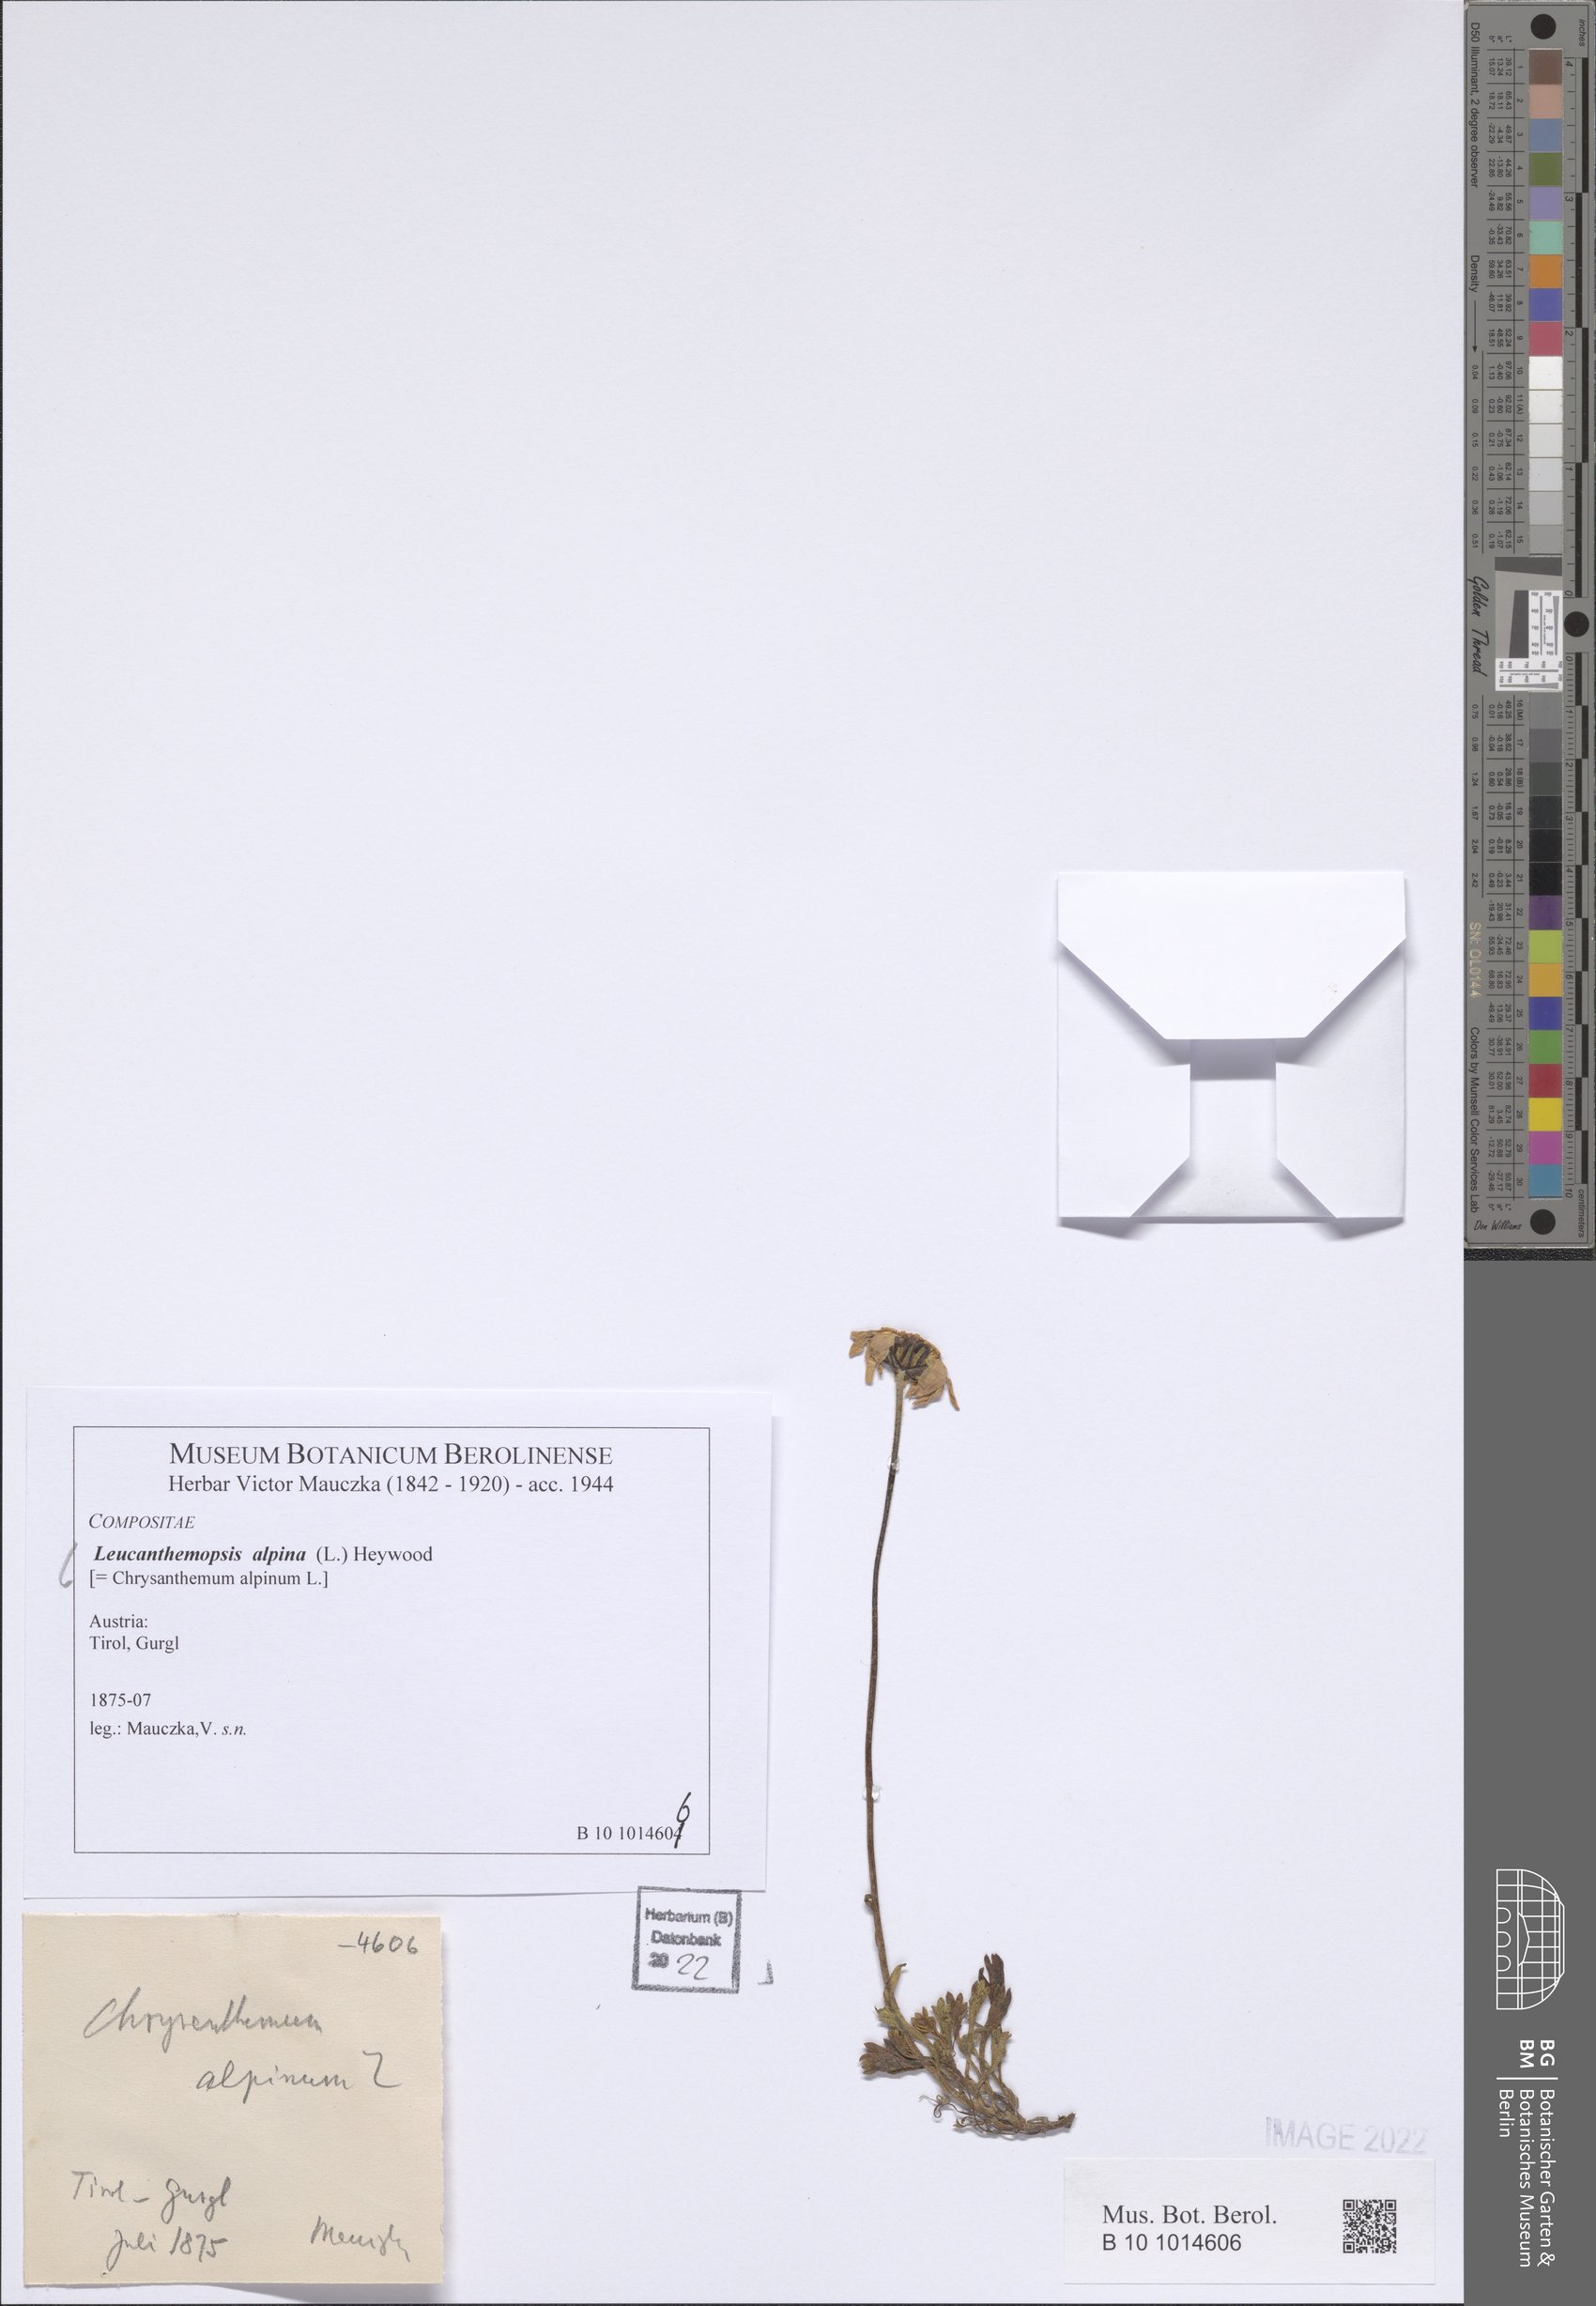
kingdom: Plantae
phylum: Tracheophyta
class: Magnoliopsida
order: Asterales
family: Asteraceae
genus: Leucanthemopsis
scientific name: Leucanthemopsis alpina
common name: Alpine moon daisy
